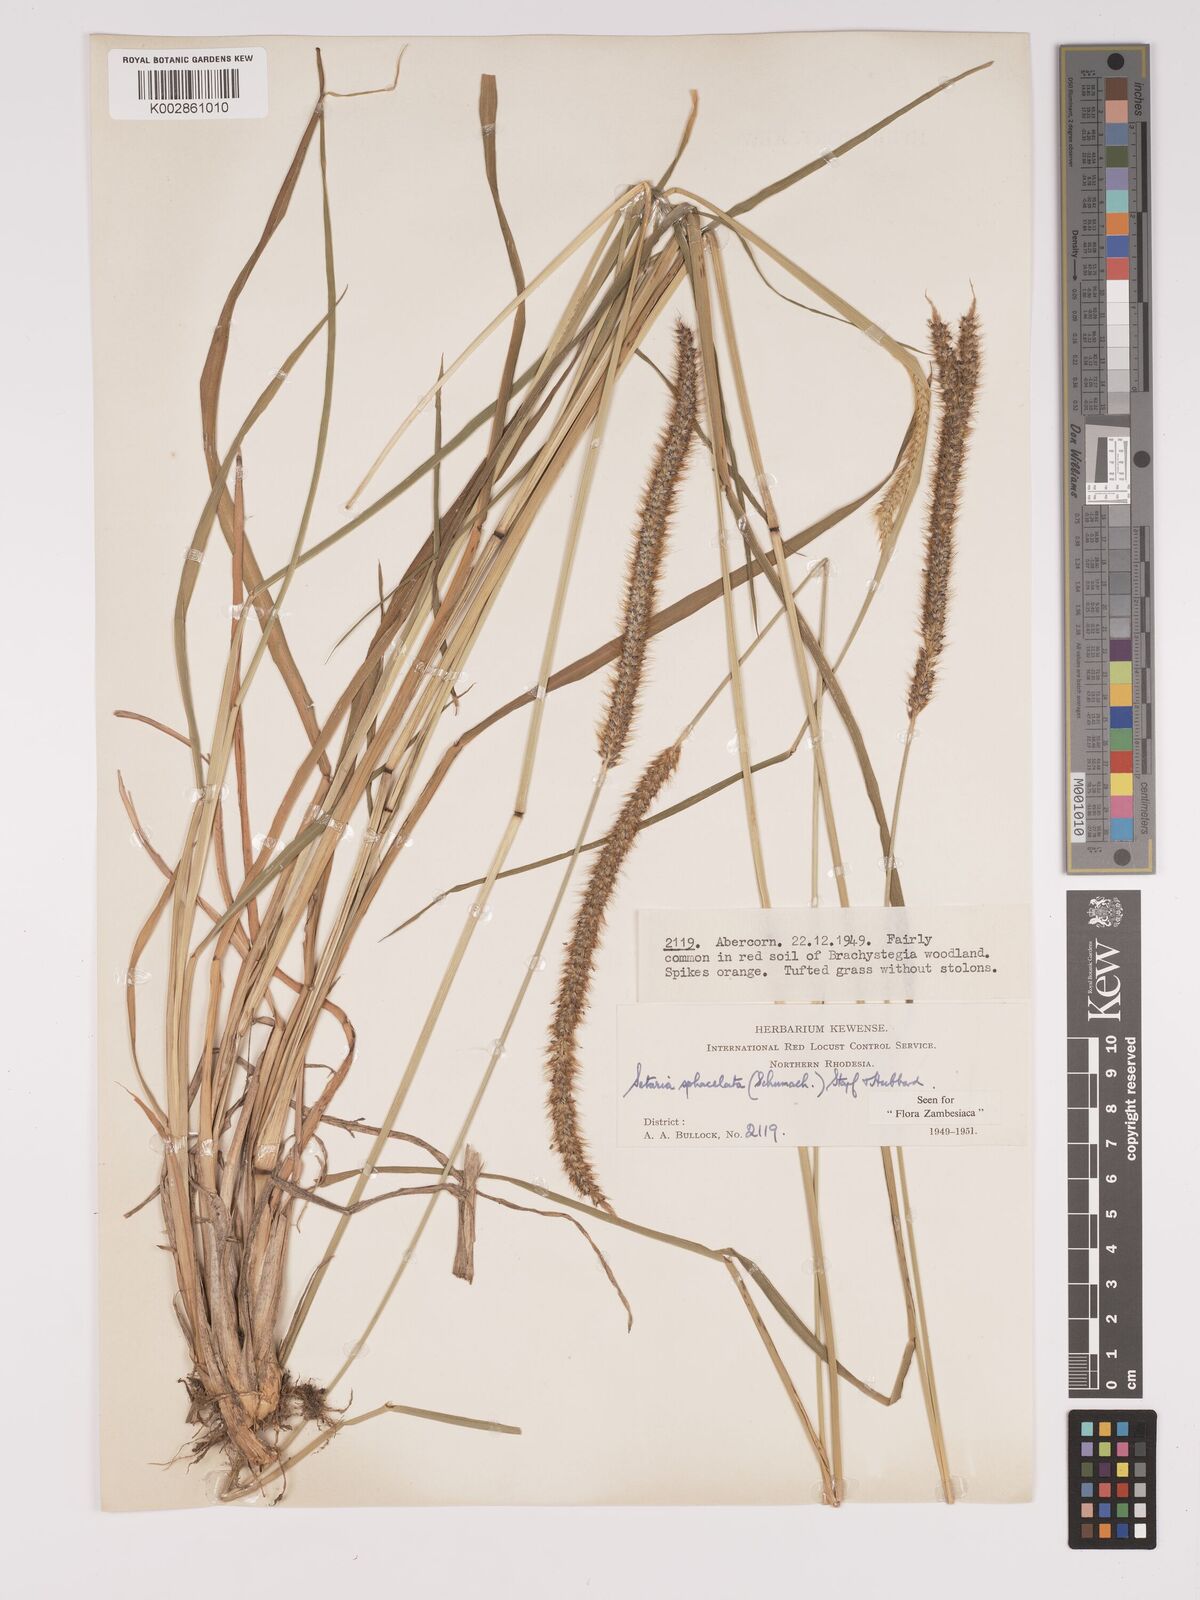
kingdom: Plantae
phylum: Tracheophyta
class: Liliopsida
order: Poales
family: Poaceae
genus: Setaria
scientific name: Setaria sphacelata
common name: African bristlegrass
